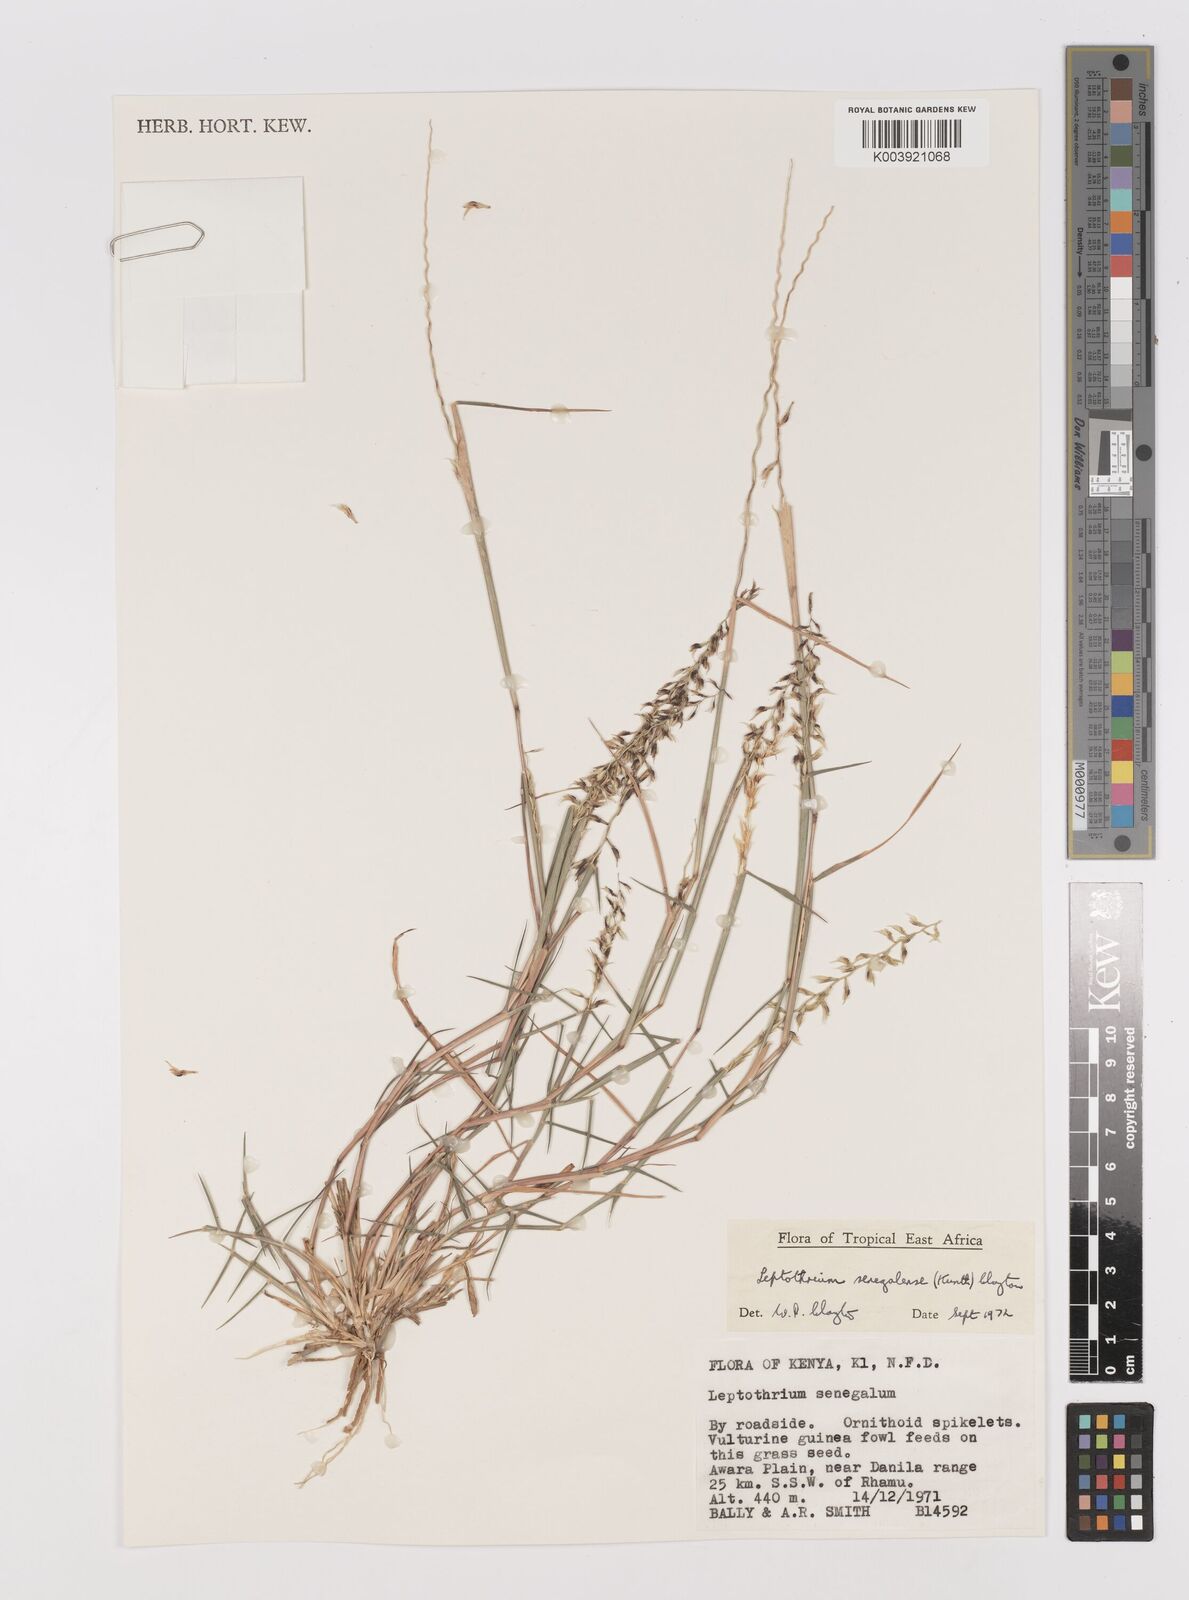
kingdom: Plantae
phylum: Tracheophyta
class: Liliopsida
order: Poales
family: Poaceae
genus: Leptothrium
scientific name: Leptothrium senegalense
